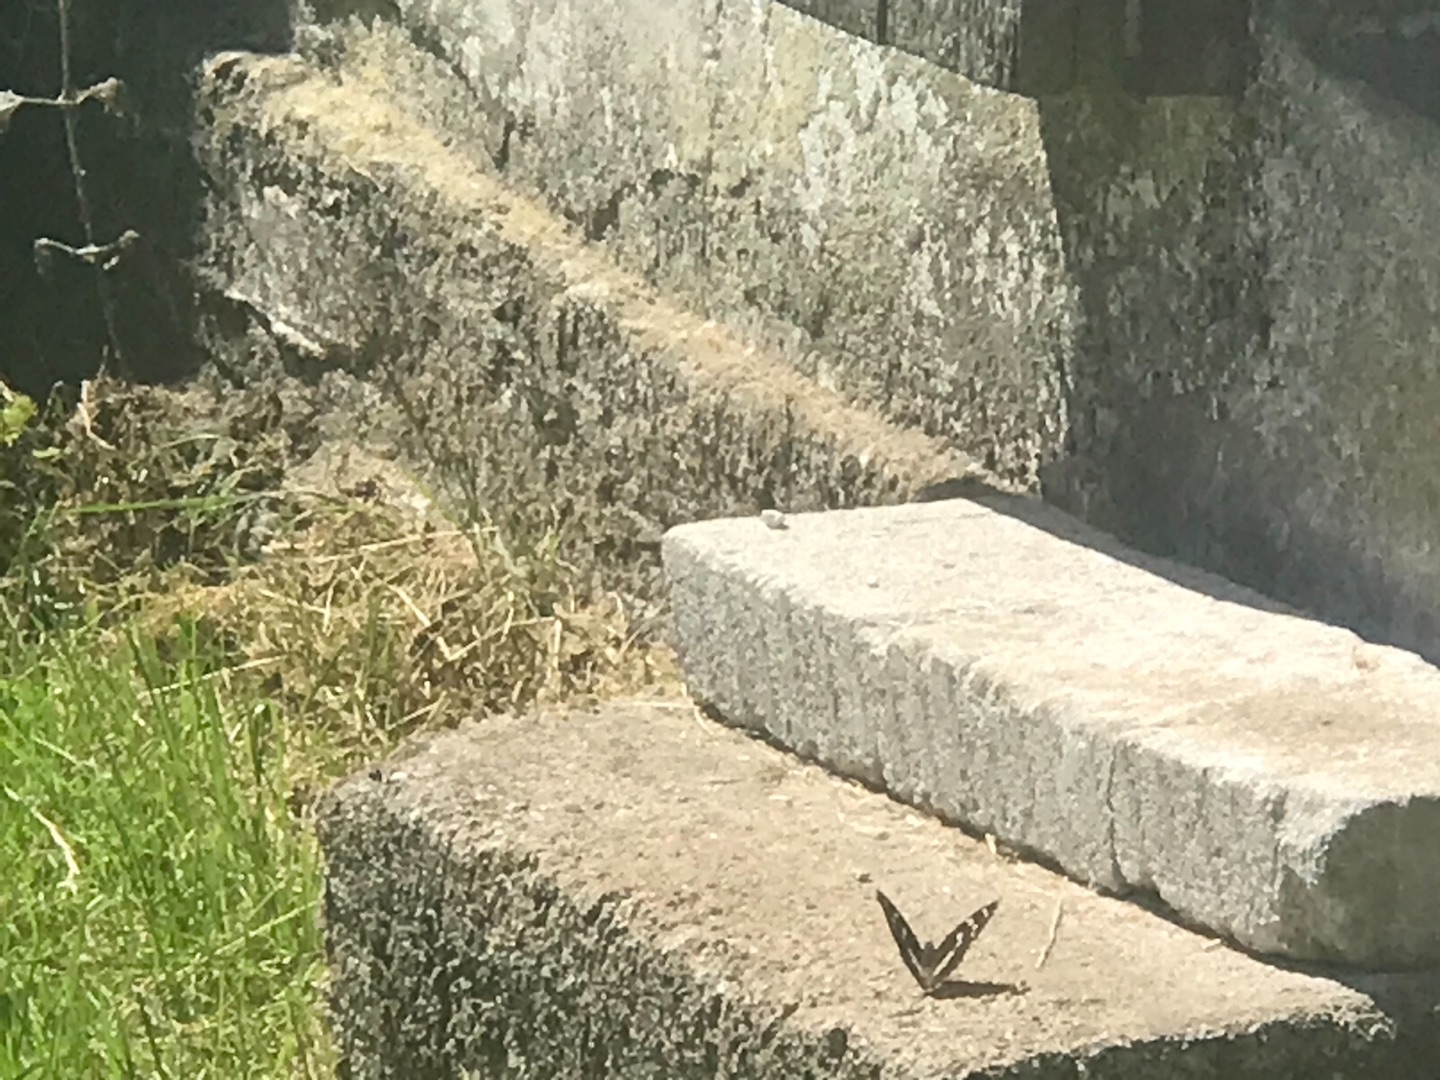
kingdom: Animalia
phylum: Arthropoda
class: Insecta
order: Lepidoptera
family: Nymphalidae
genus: Apatura
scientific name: Apatura iris
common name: Iris
